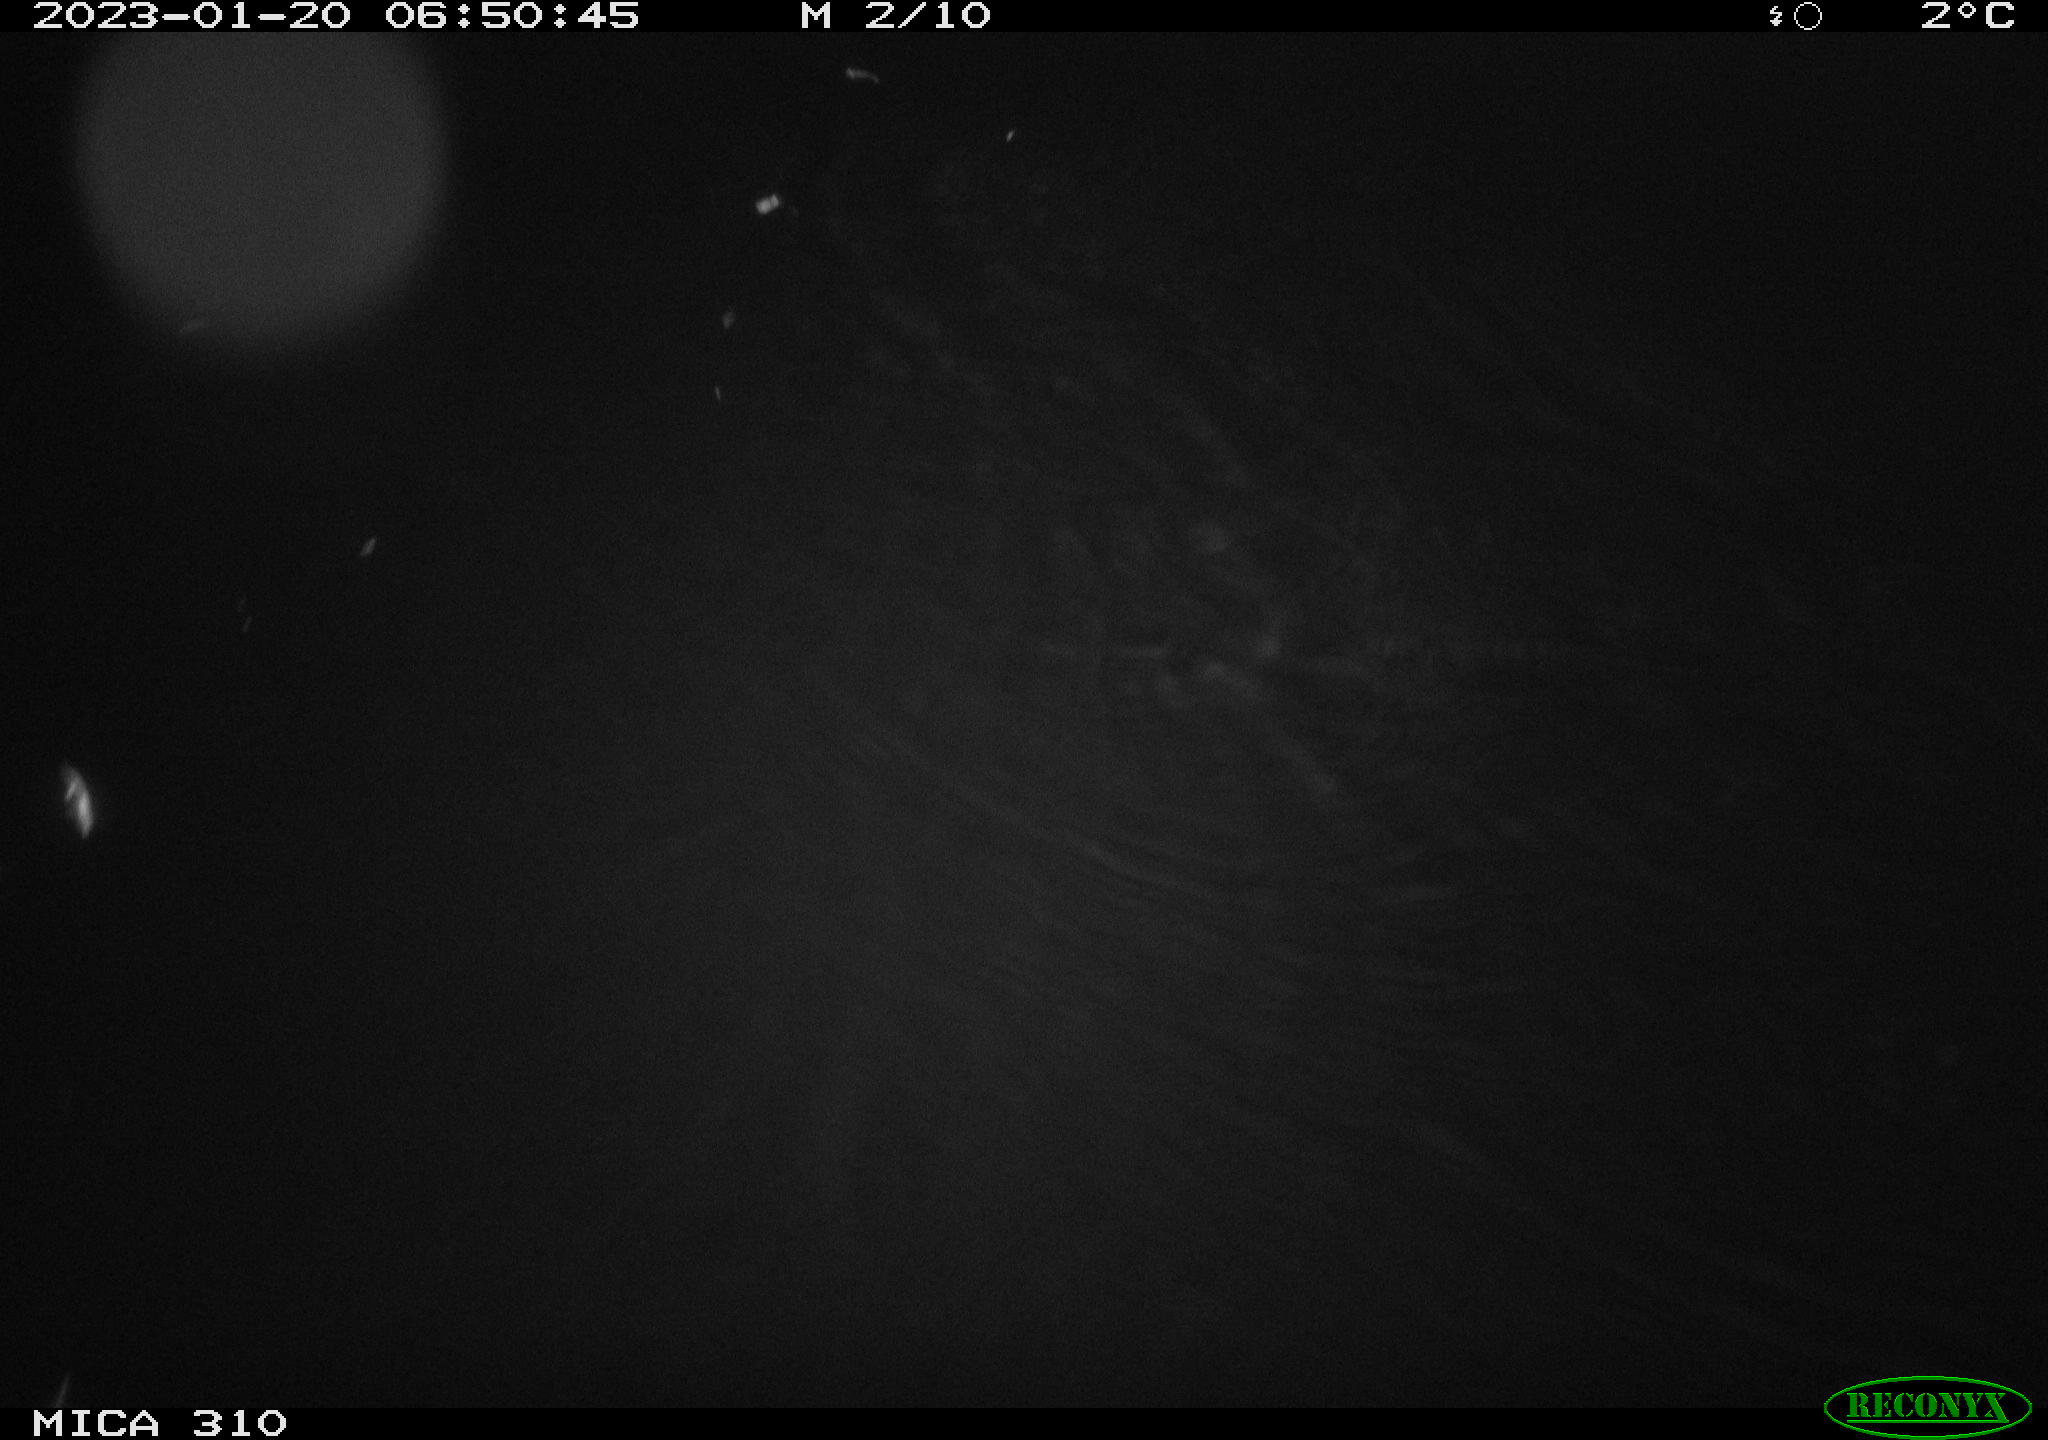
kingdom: Animalia
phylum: Chordata
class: Aves
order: Anseriformes
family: Anatidae
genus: Anas
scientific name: Anas
